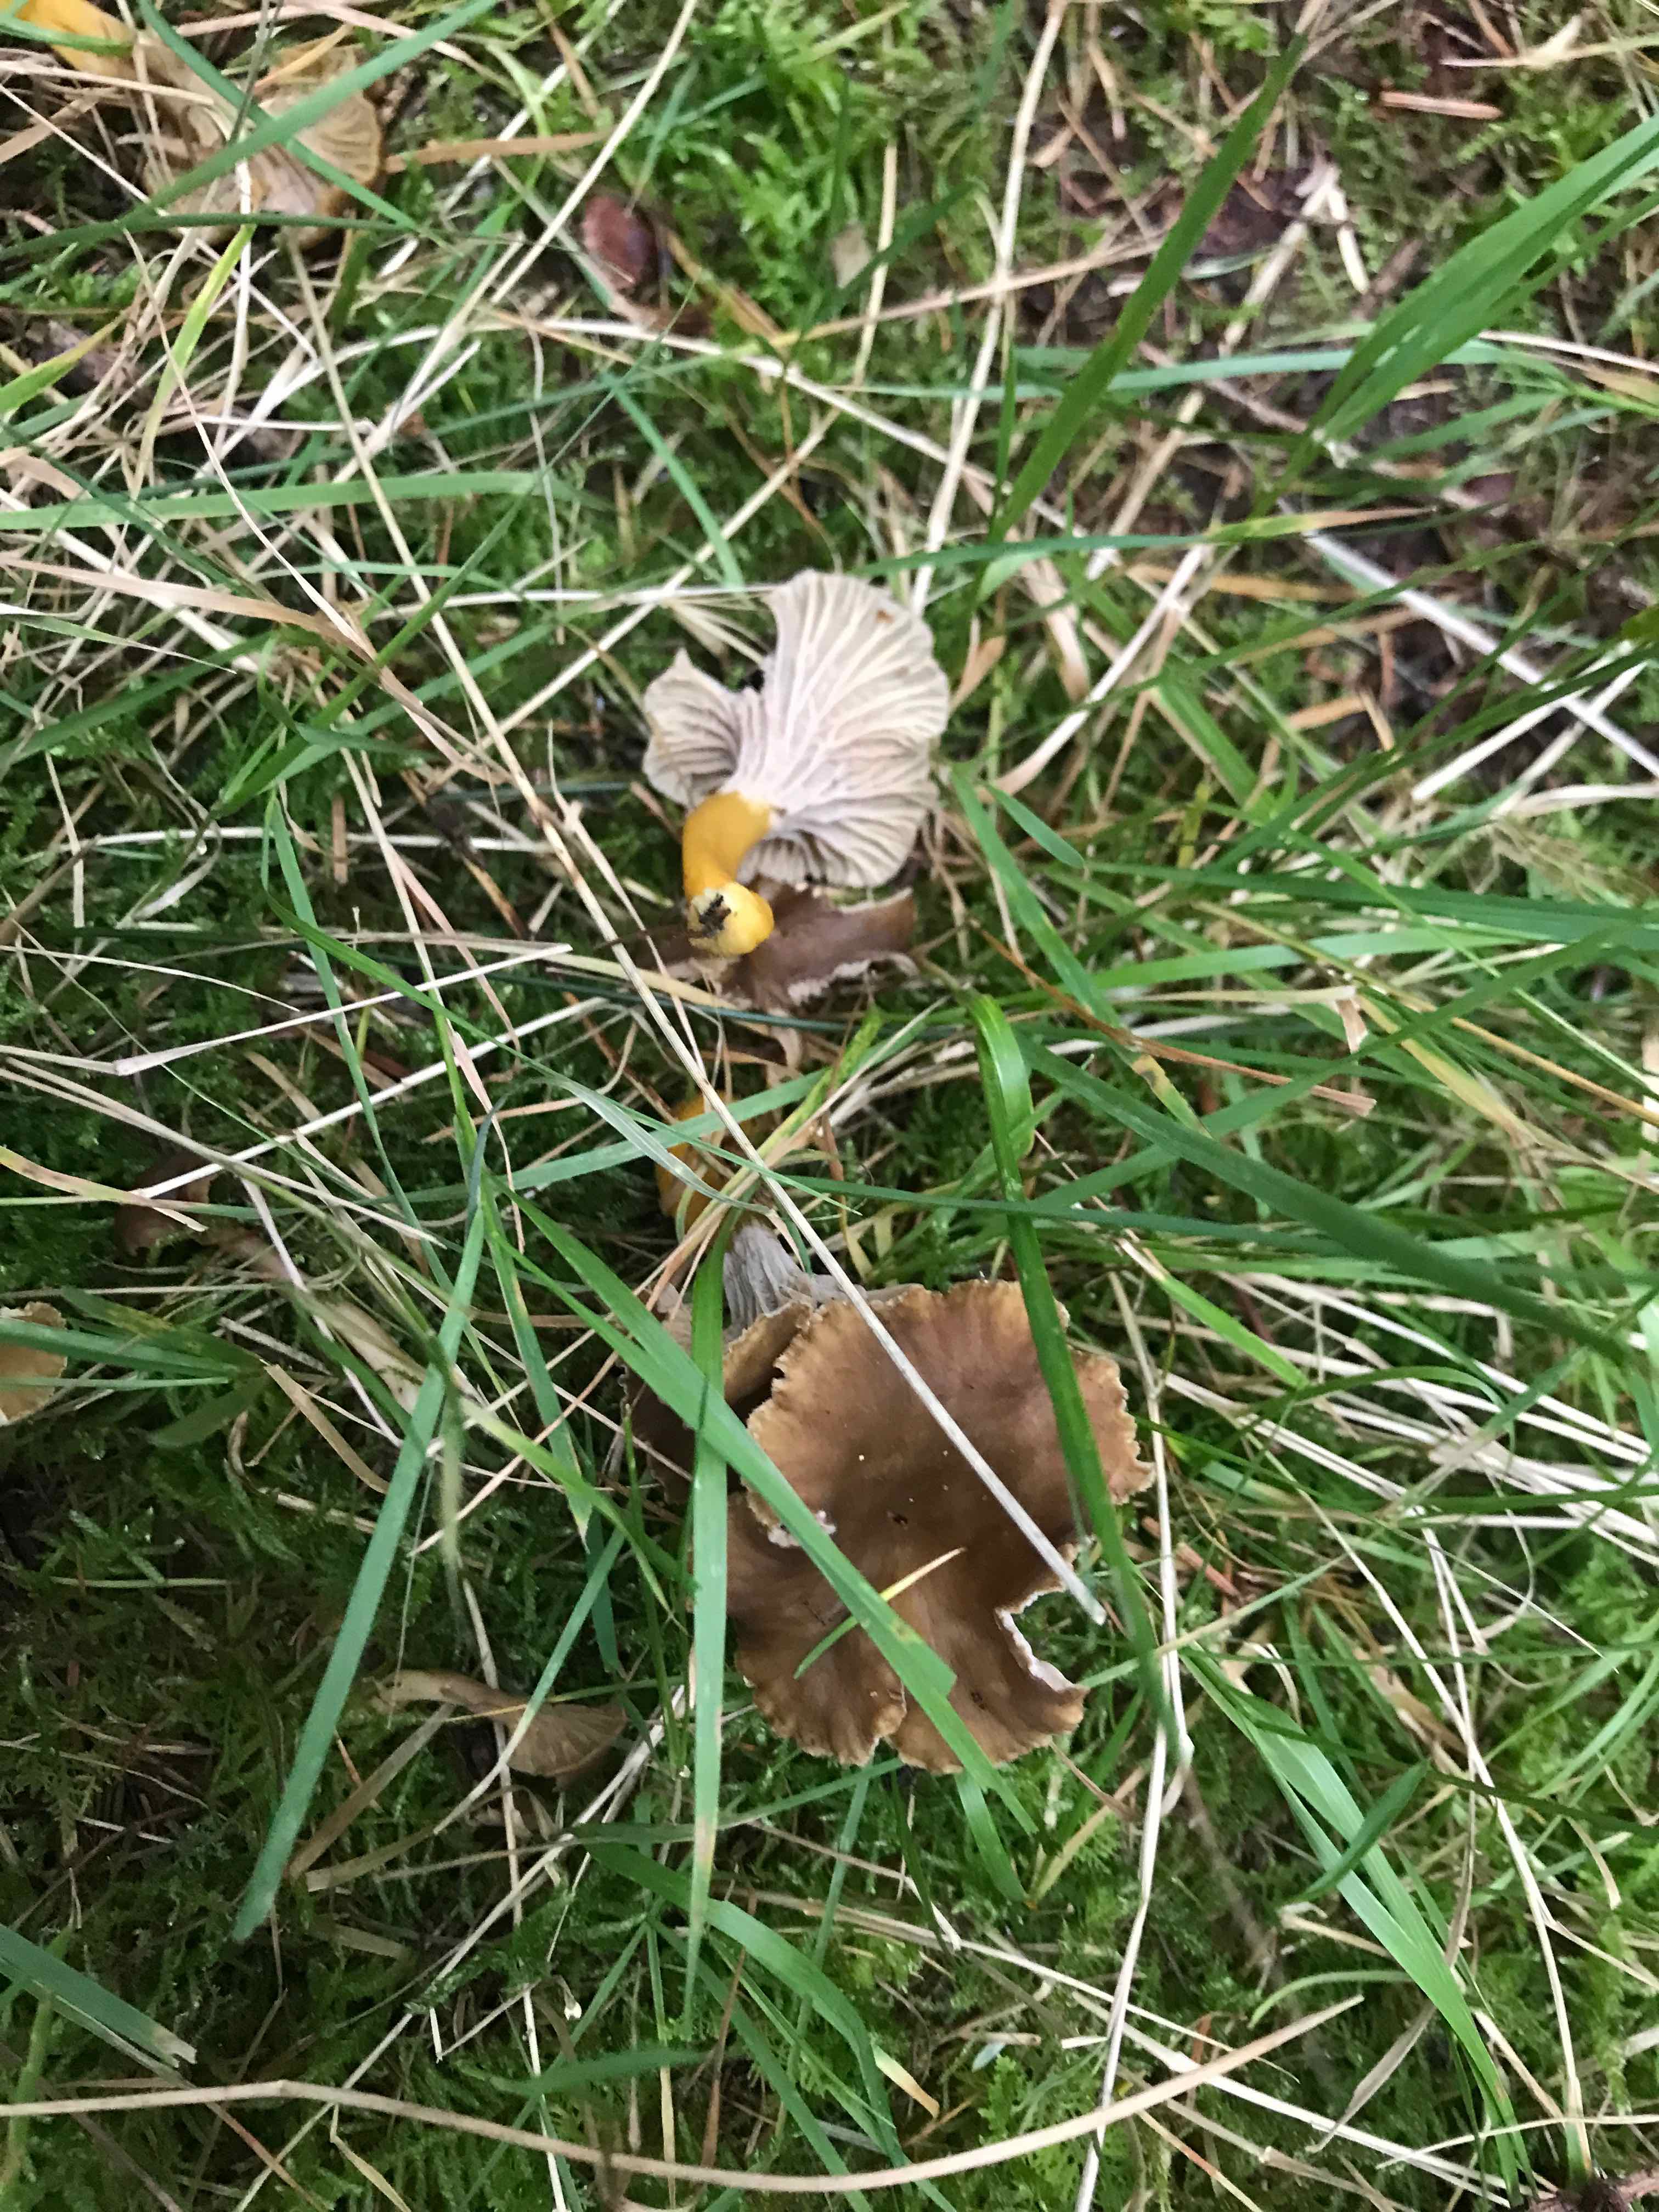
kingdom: Fungi
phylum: Basidiomycota
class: Agaricomycetes
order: Cantharellales
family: Hydnaceae
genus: Craterellus
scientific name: Craterellus tubaeformis
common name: tragt-kantarel
